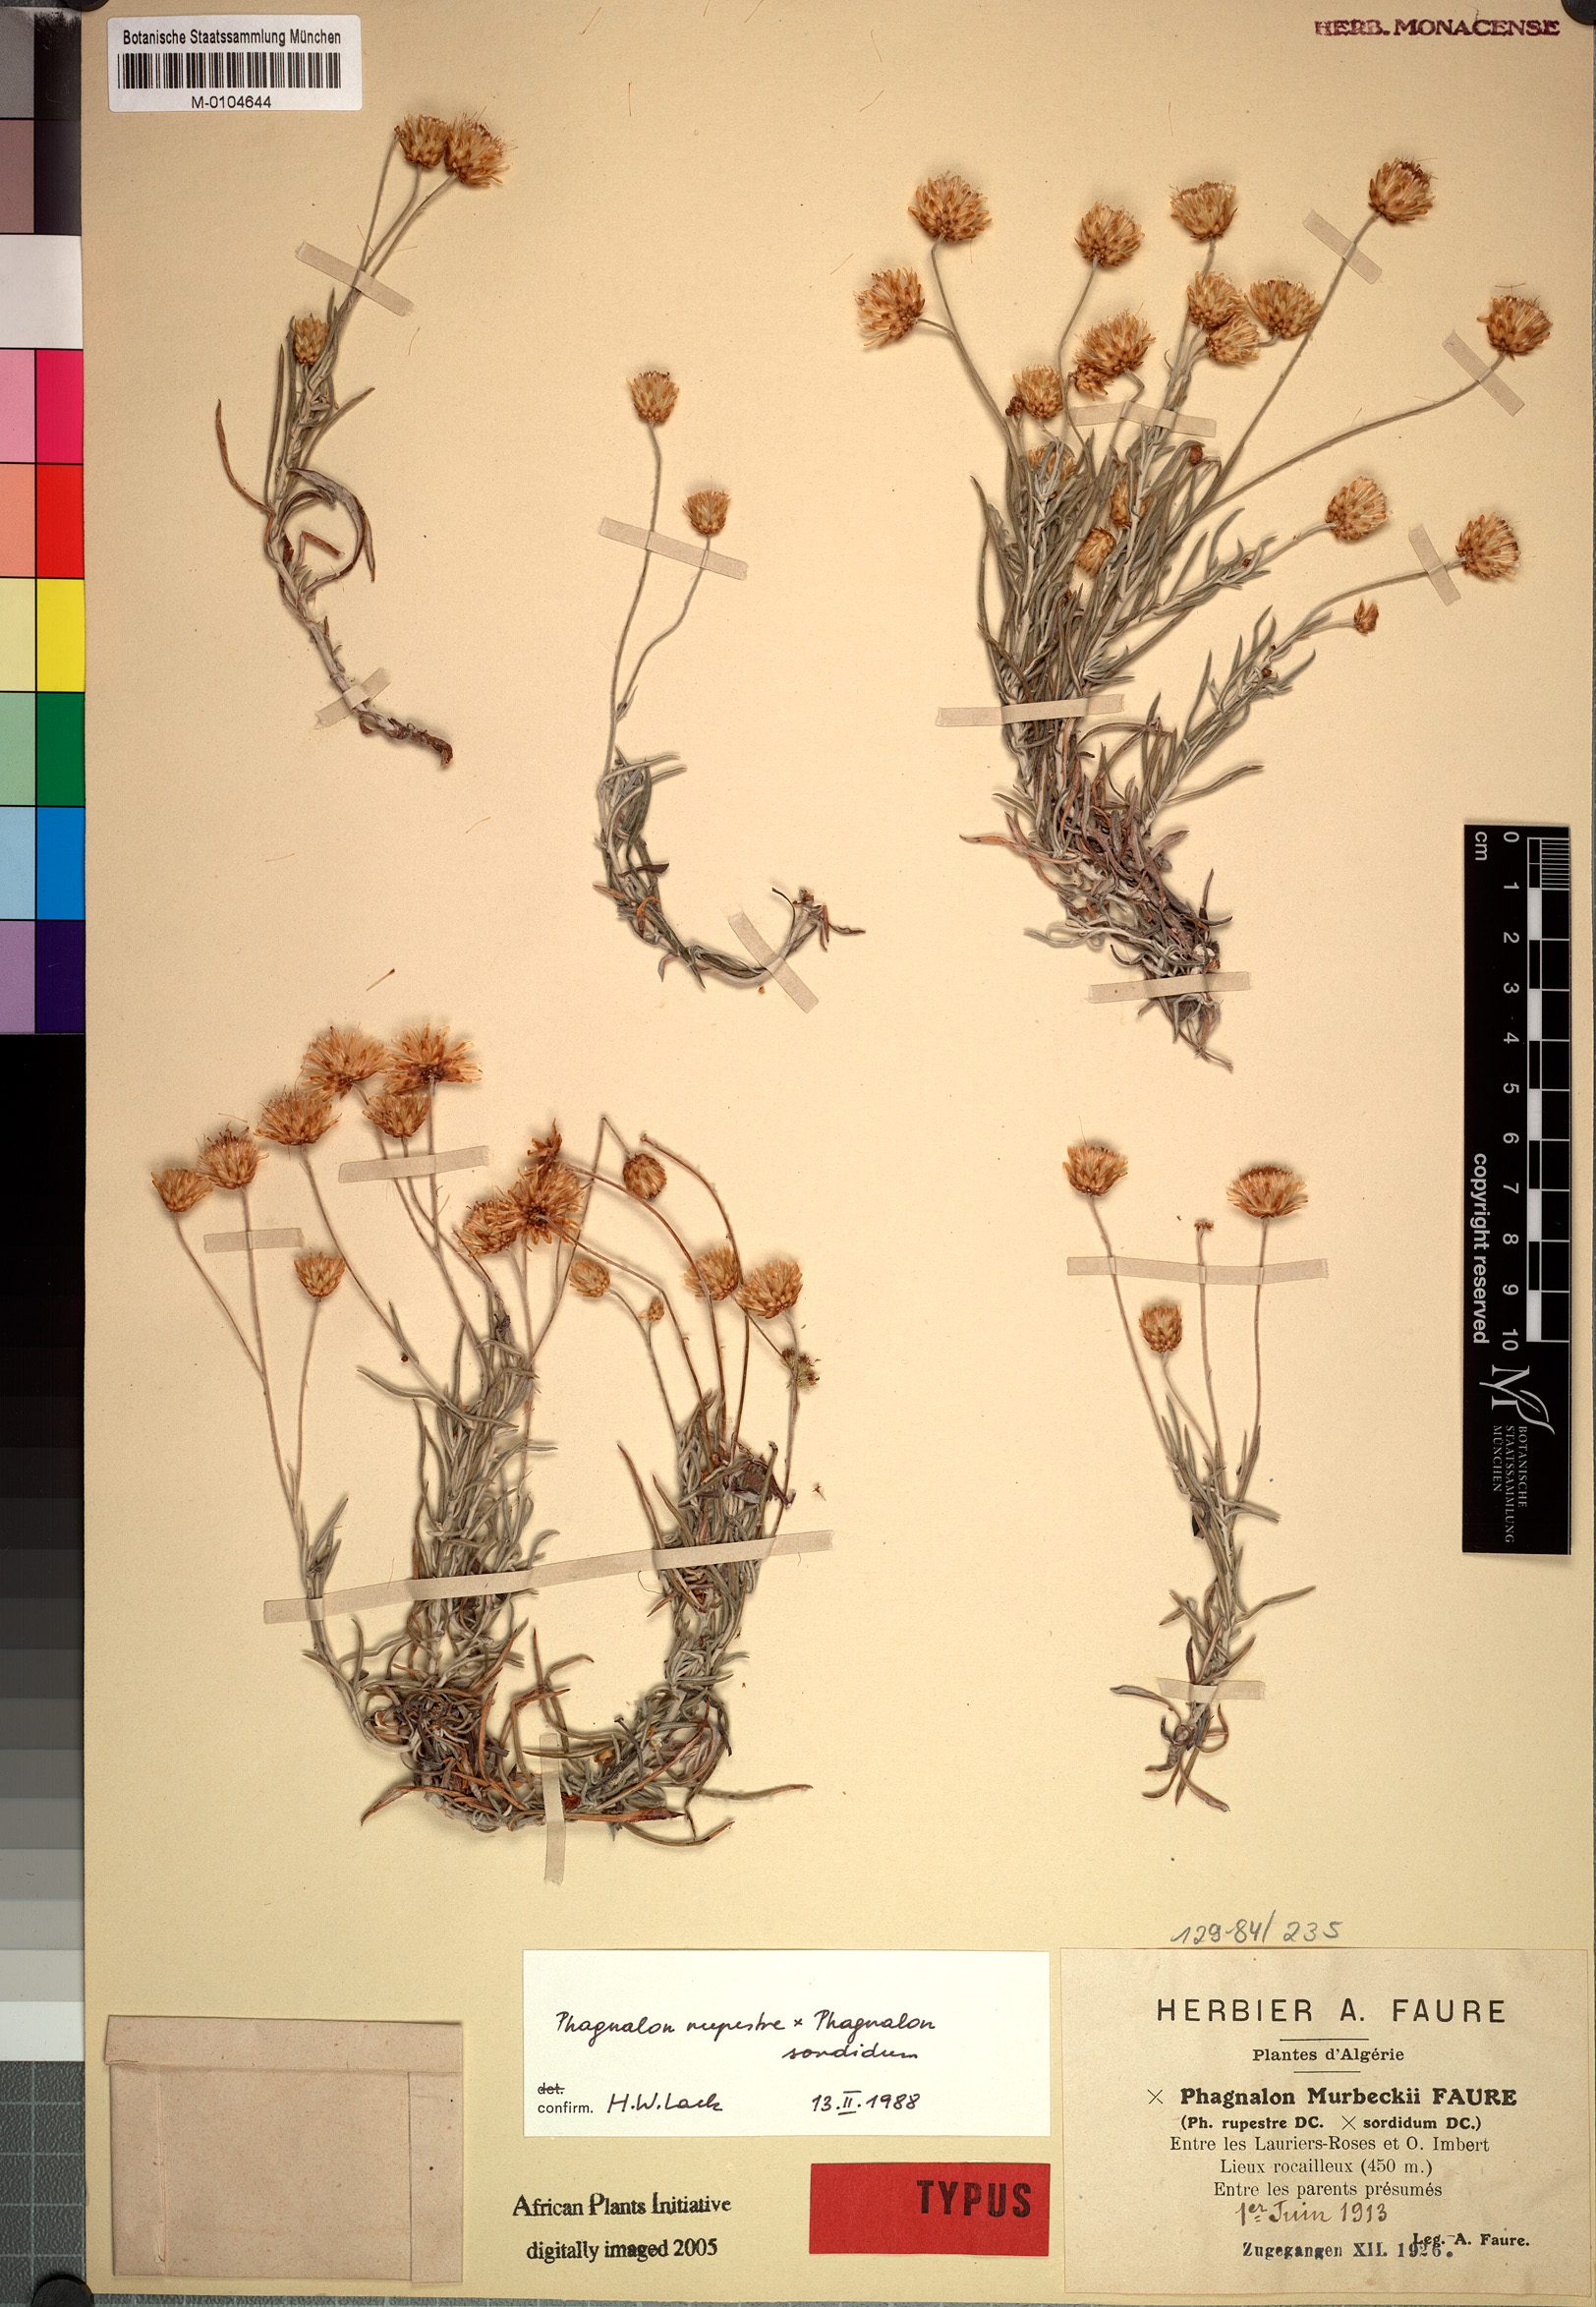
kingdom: Plantae
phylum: Tracheophyta
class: Magnoliopsida
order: Asterales
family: Asteraceae
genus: Phagnalon
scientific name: Phagnalon murbeckii
